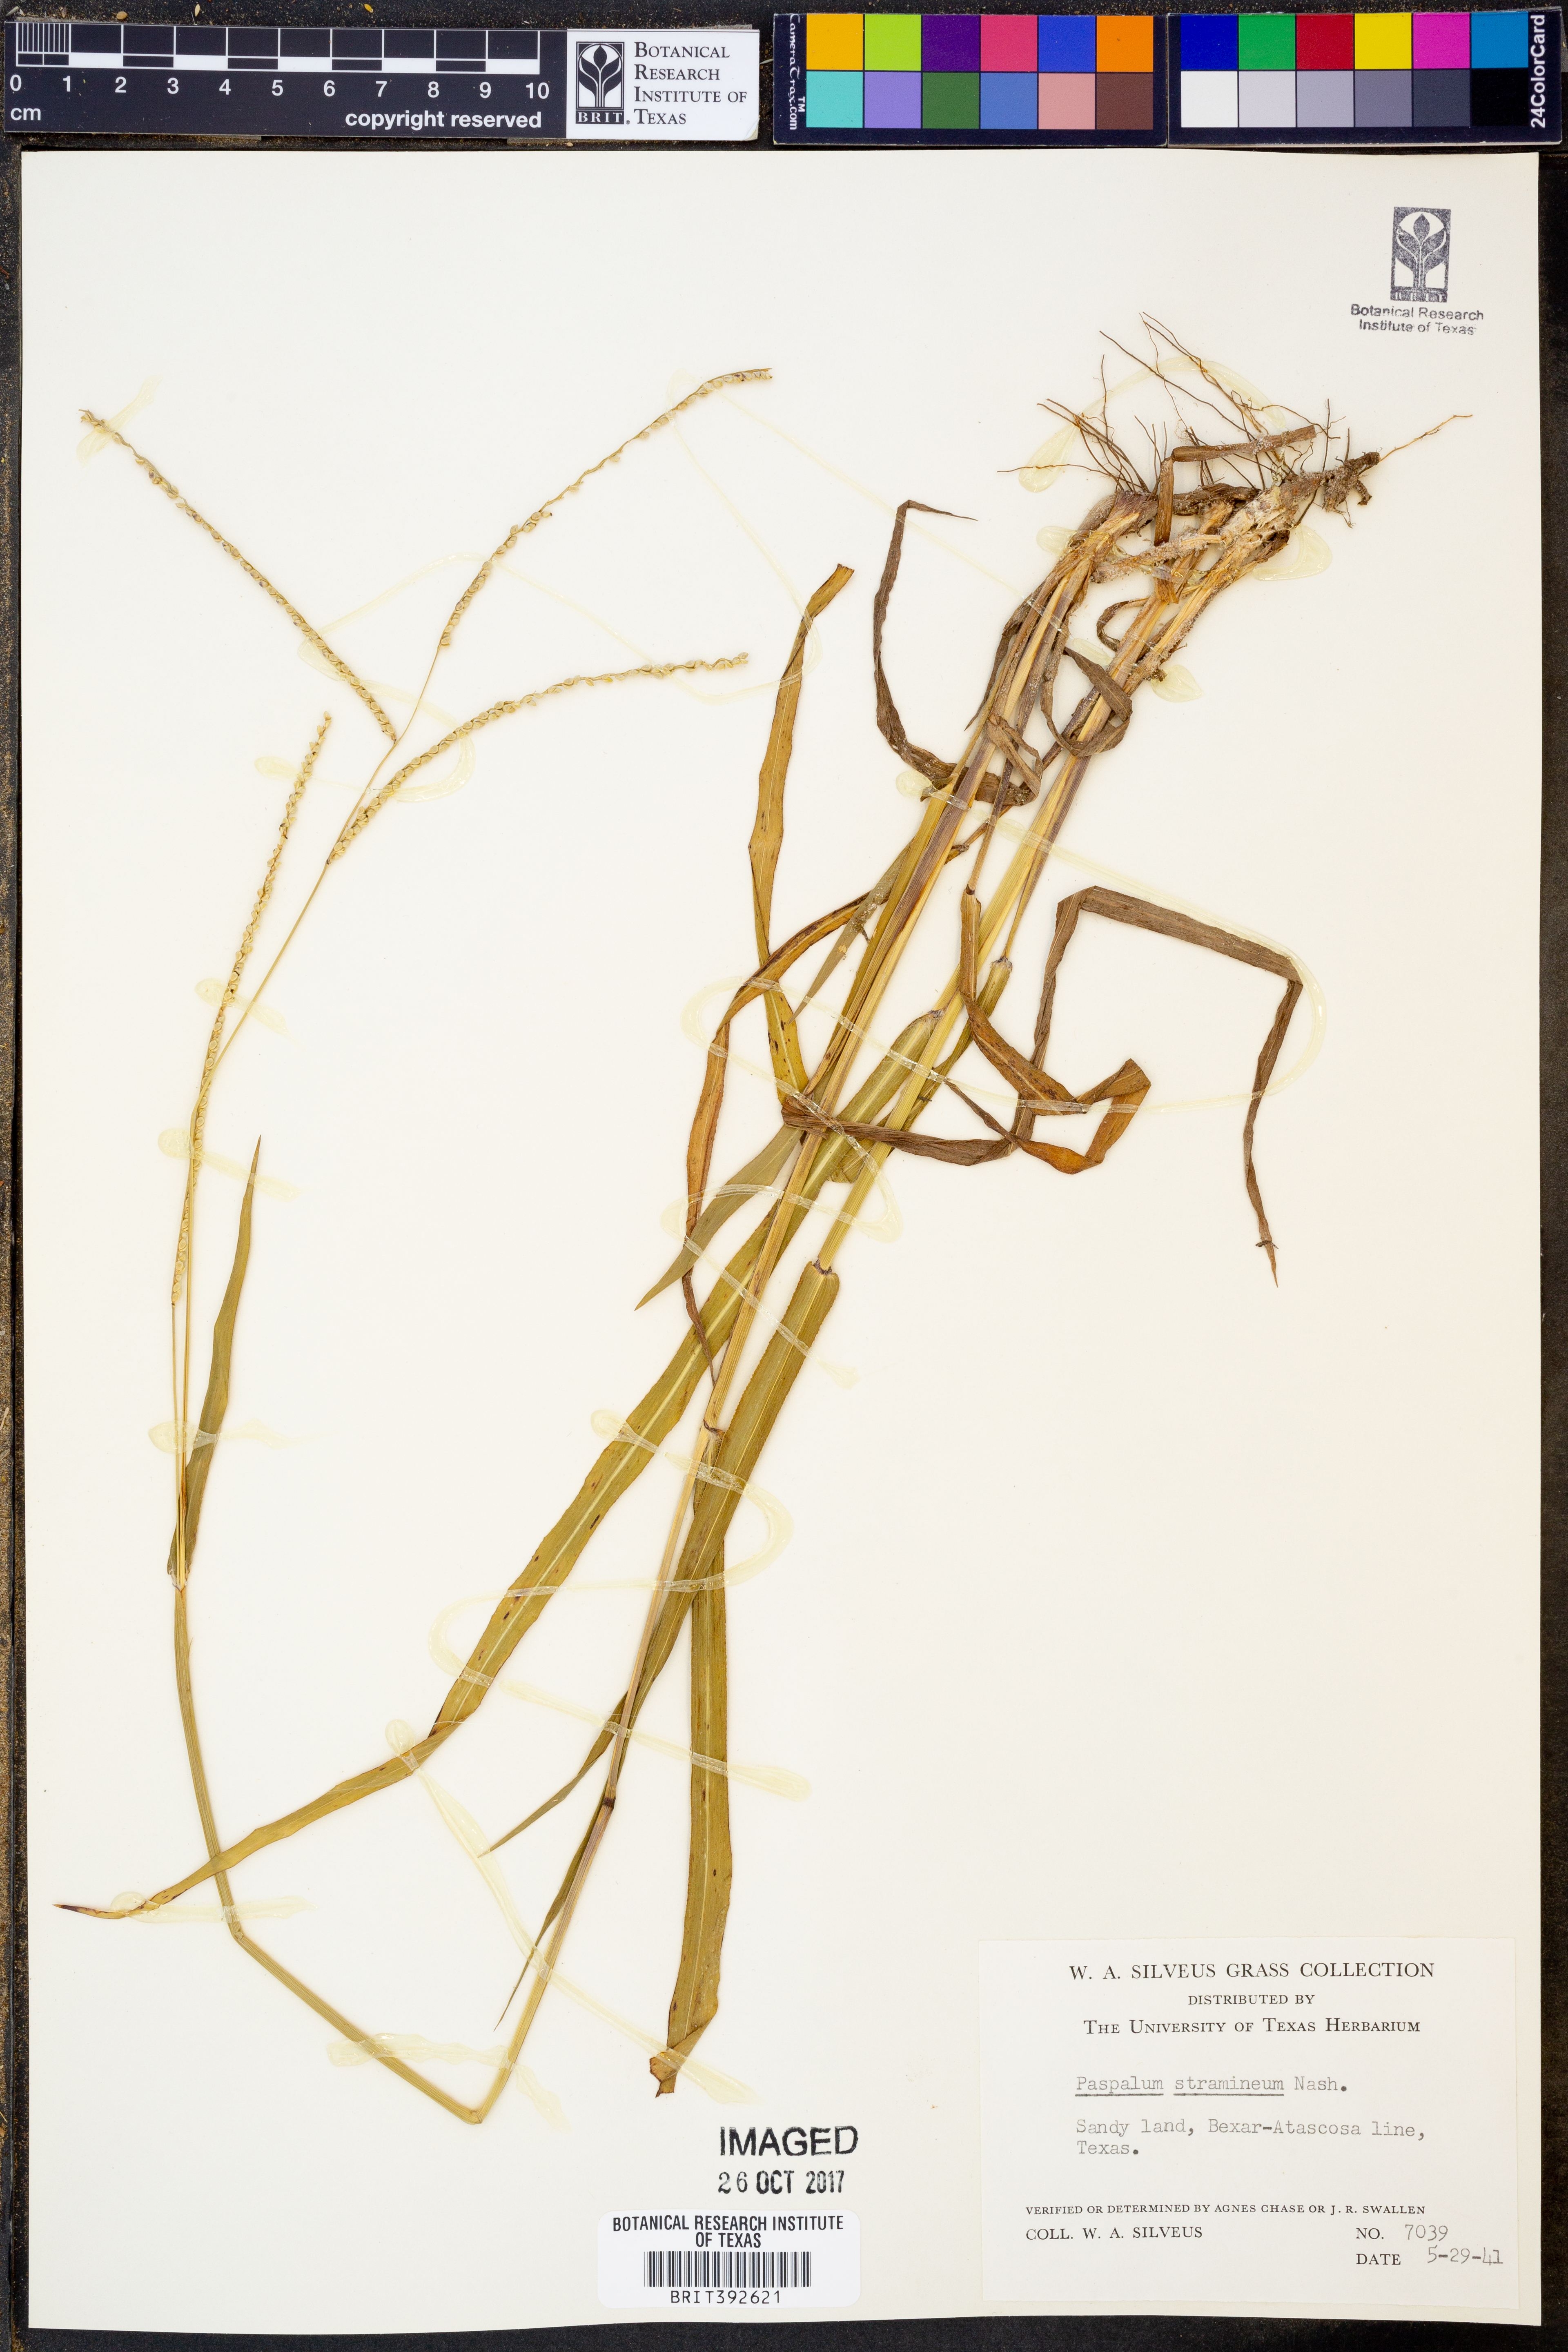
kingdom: Plantae
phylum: Tracheophyta
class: Liliopsida
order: Poales
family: Poaceae
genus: Paspalum
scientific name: Paspalum setaceum
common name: Slender paspalum
